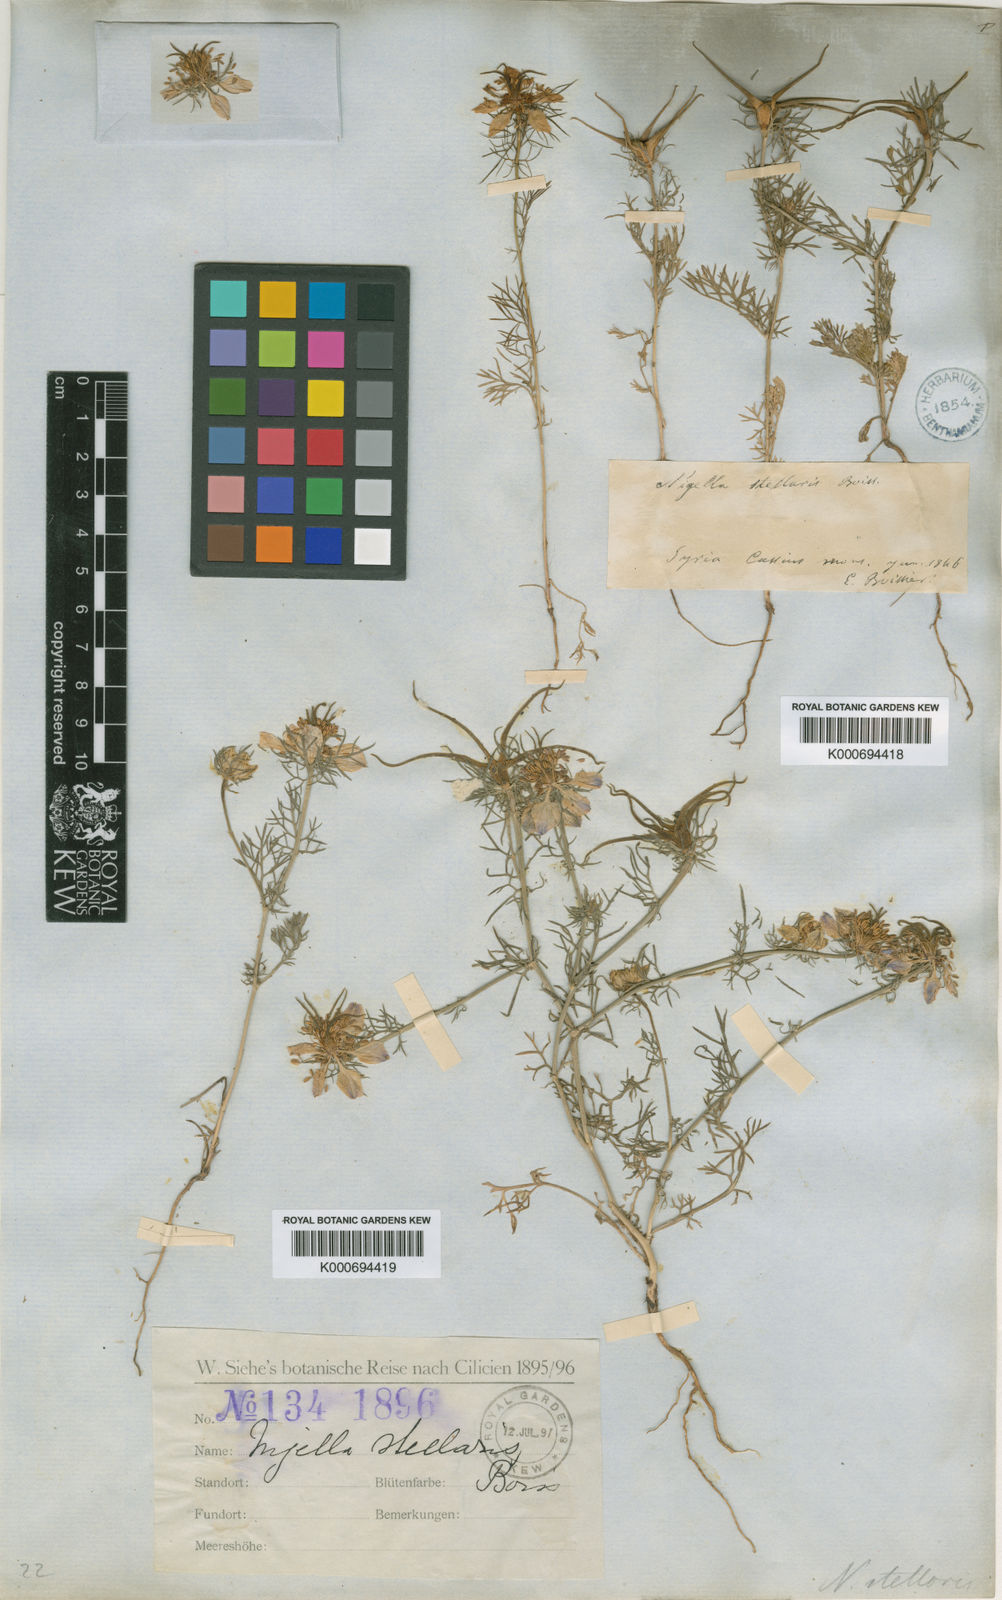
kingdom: Plantae
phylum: Tracheophyta
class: Magnoliopsida
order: Ranunculales
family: Ranunculaceae
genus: Nigella
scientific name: Nigella stellaris
